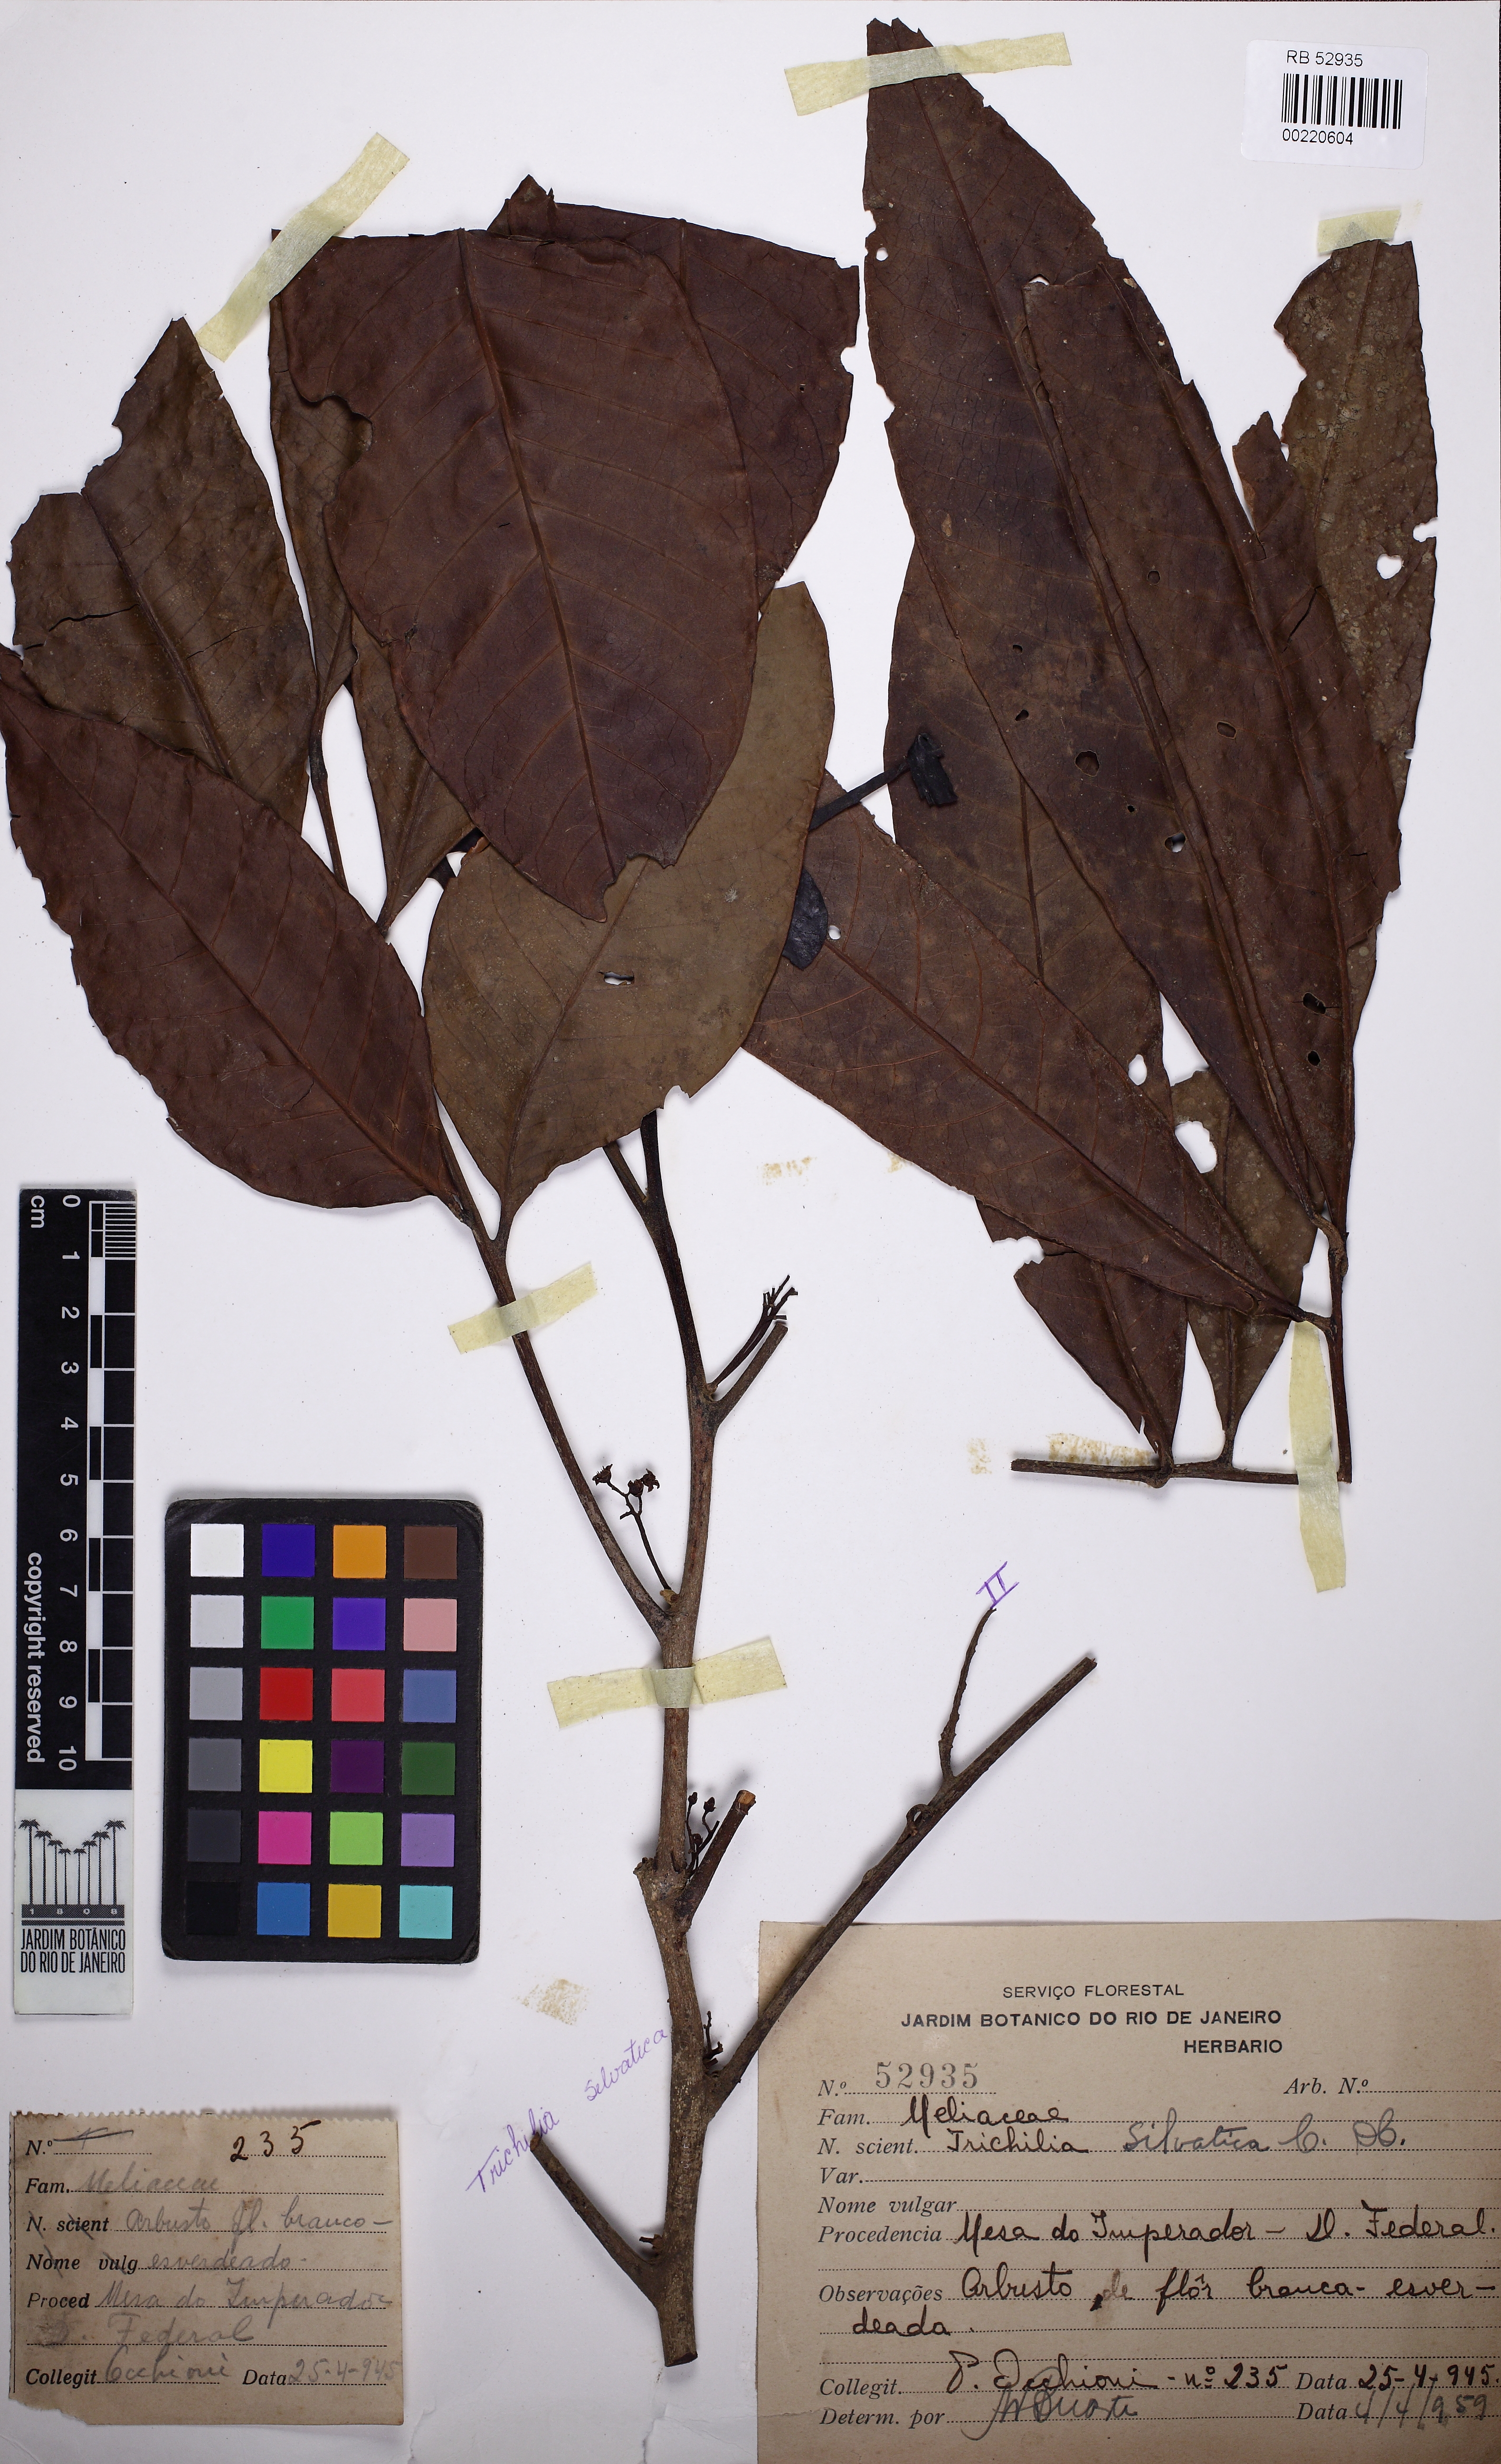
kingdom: Plantae
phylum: Tracheophyta
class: Magnoliopsida
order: Sapindales
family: Meliaceae
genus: Trichilia
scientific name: Trichilia silvatica
